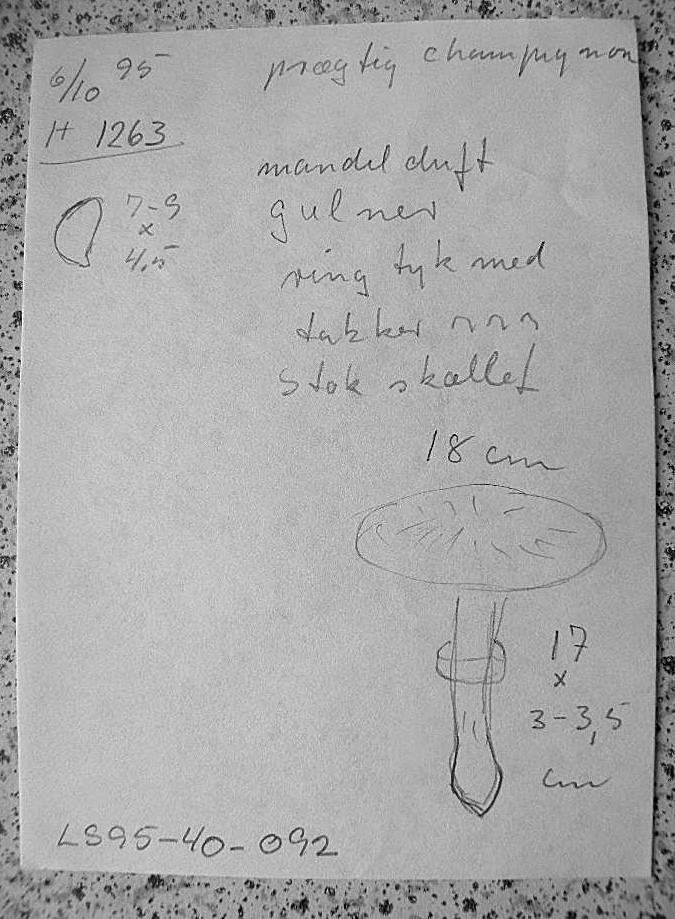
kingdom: Fungi
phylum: Basidiomycota
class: Agaricomycetes
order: Agaricales
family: Agaricaceae
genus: Agaricus
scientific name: Agaricus augustus
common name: prægtig champignon
